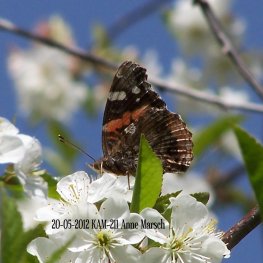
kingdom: Animalia
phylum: Arthropoda
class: Insecta
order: Lepidoptera
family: Nymphalidae
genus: Vanessa
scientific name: Vanessa atalanta
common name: Red Admiral
